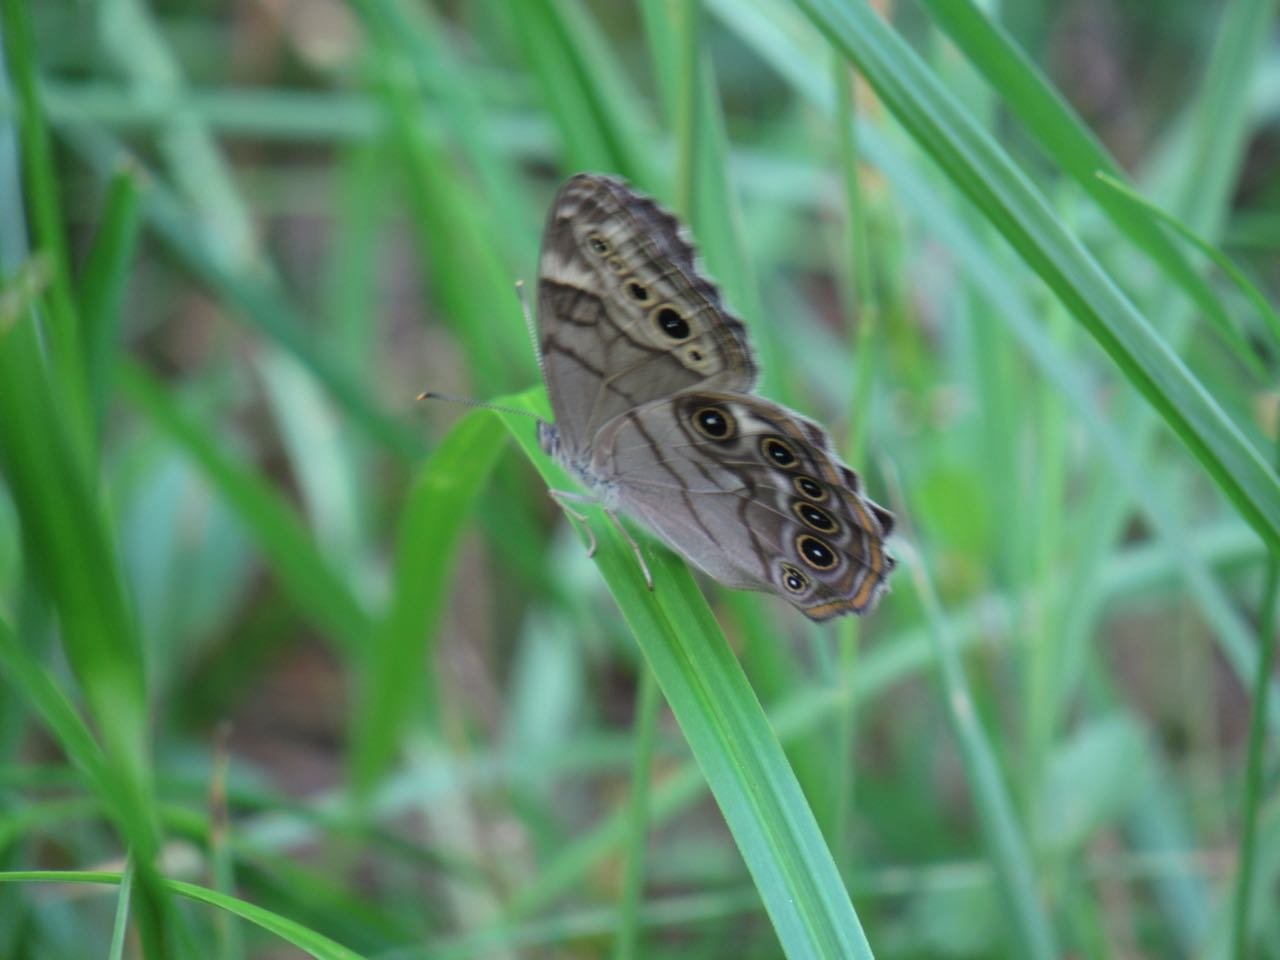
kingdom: Animalia
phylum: Arthropoda
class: Insecta
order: Lepidoptera
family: Nymphalidae
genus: Lethe
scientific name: Lethe anthedon
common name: Northern Pearly-Eye
